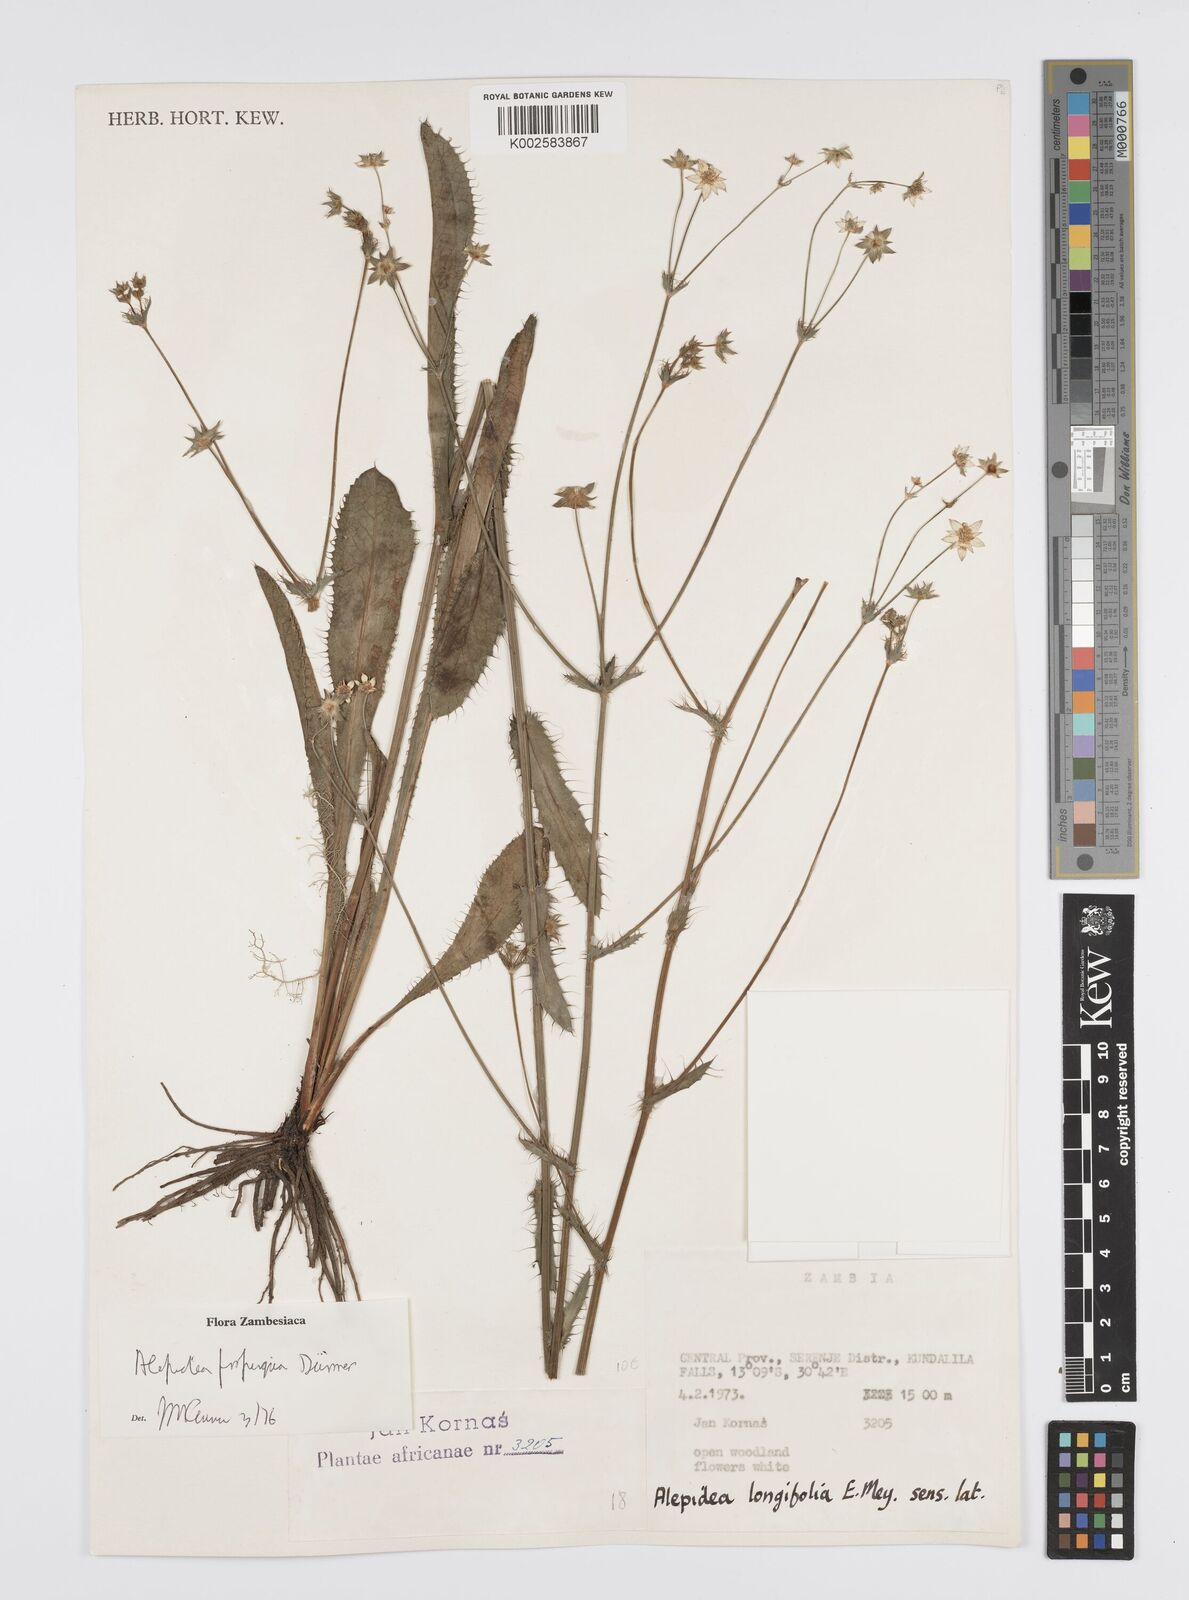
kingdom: Plantae
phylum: Tracheophyta
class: Magnoliopsida
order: Apiales
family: Apiaceae
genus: Alepidea
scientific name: Alepidea
